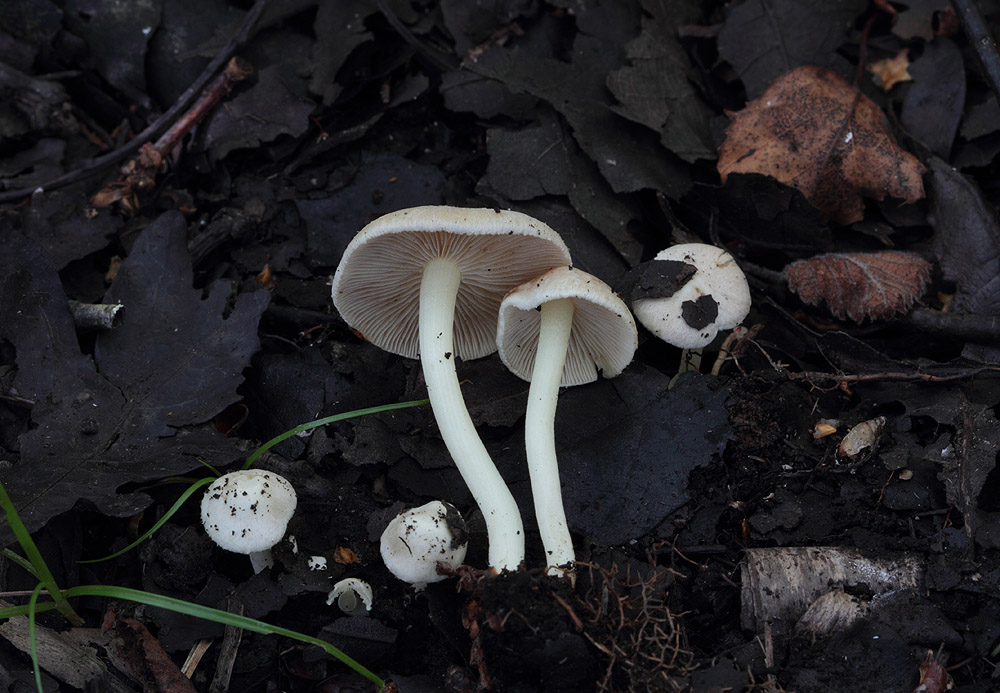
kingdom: Fungi
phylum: Basidiomycota
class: Agaricomycetes
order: Agaricales
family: Inocybaceae
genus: Inocybe
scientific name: Inocybe paludinella
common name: mose-trævlhat
